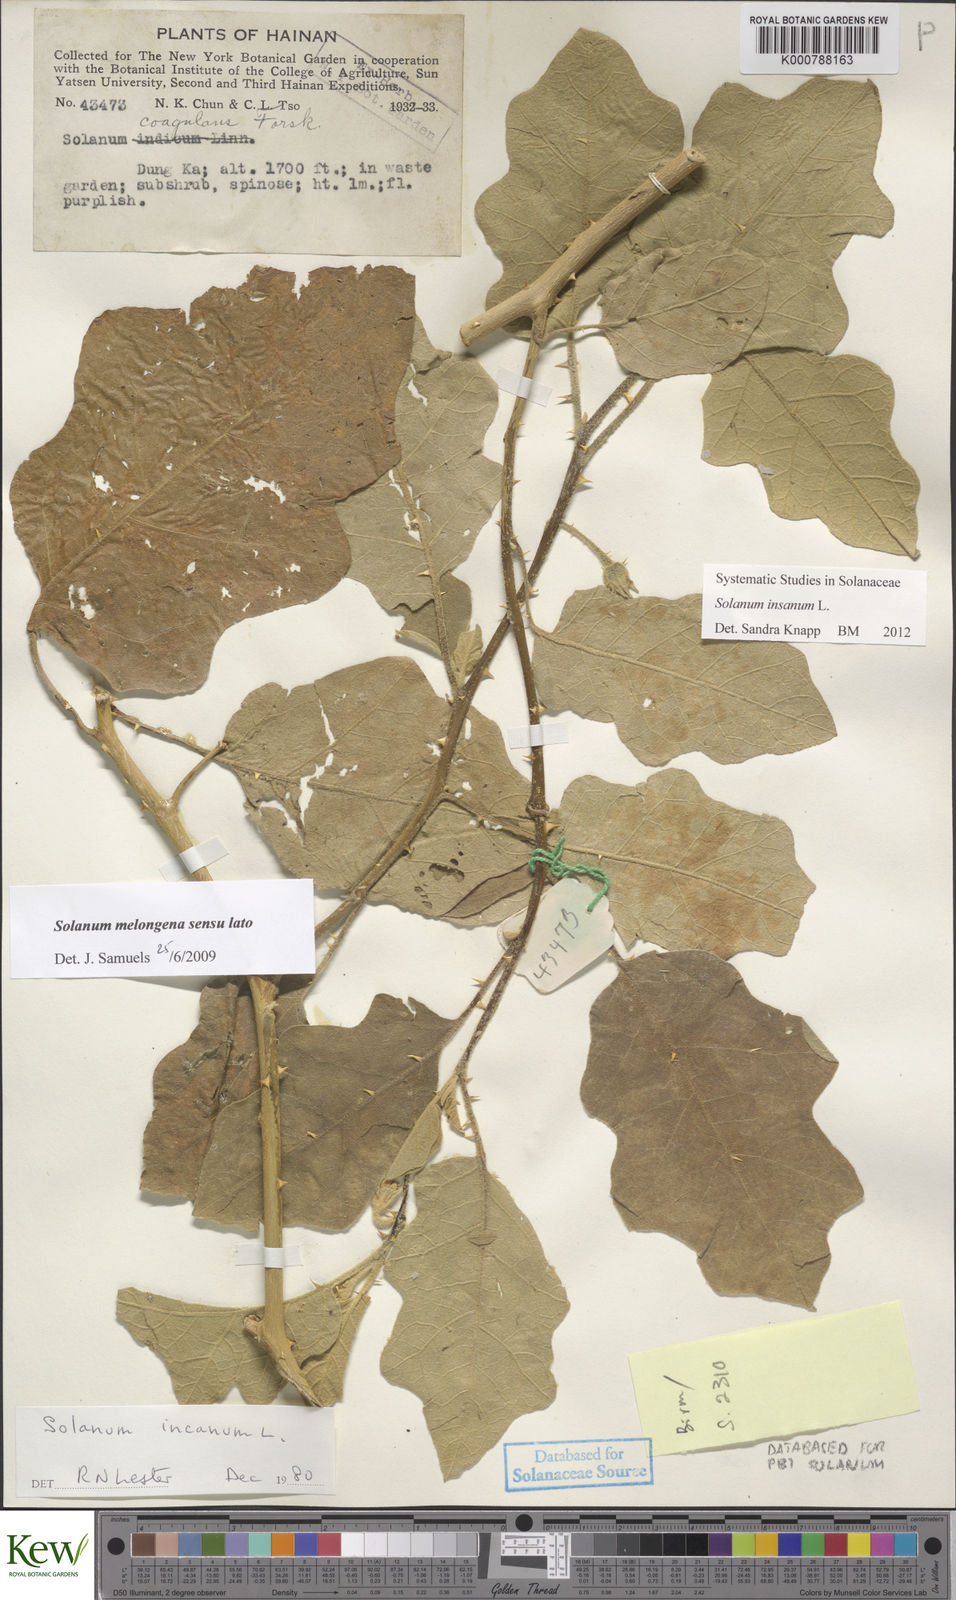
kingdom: Plantae
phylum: Tracheophyta
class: Magnoliopsida
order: Solanales
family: Solanaceae
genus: Solanum
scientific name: Solanum insanum
